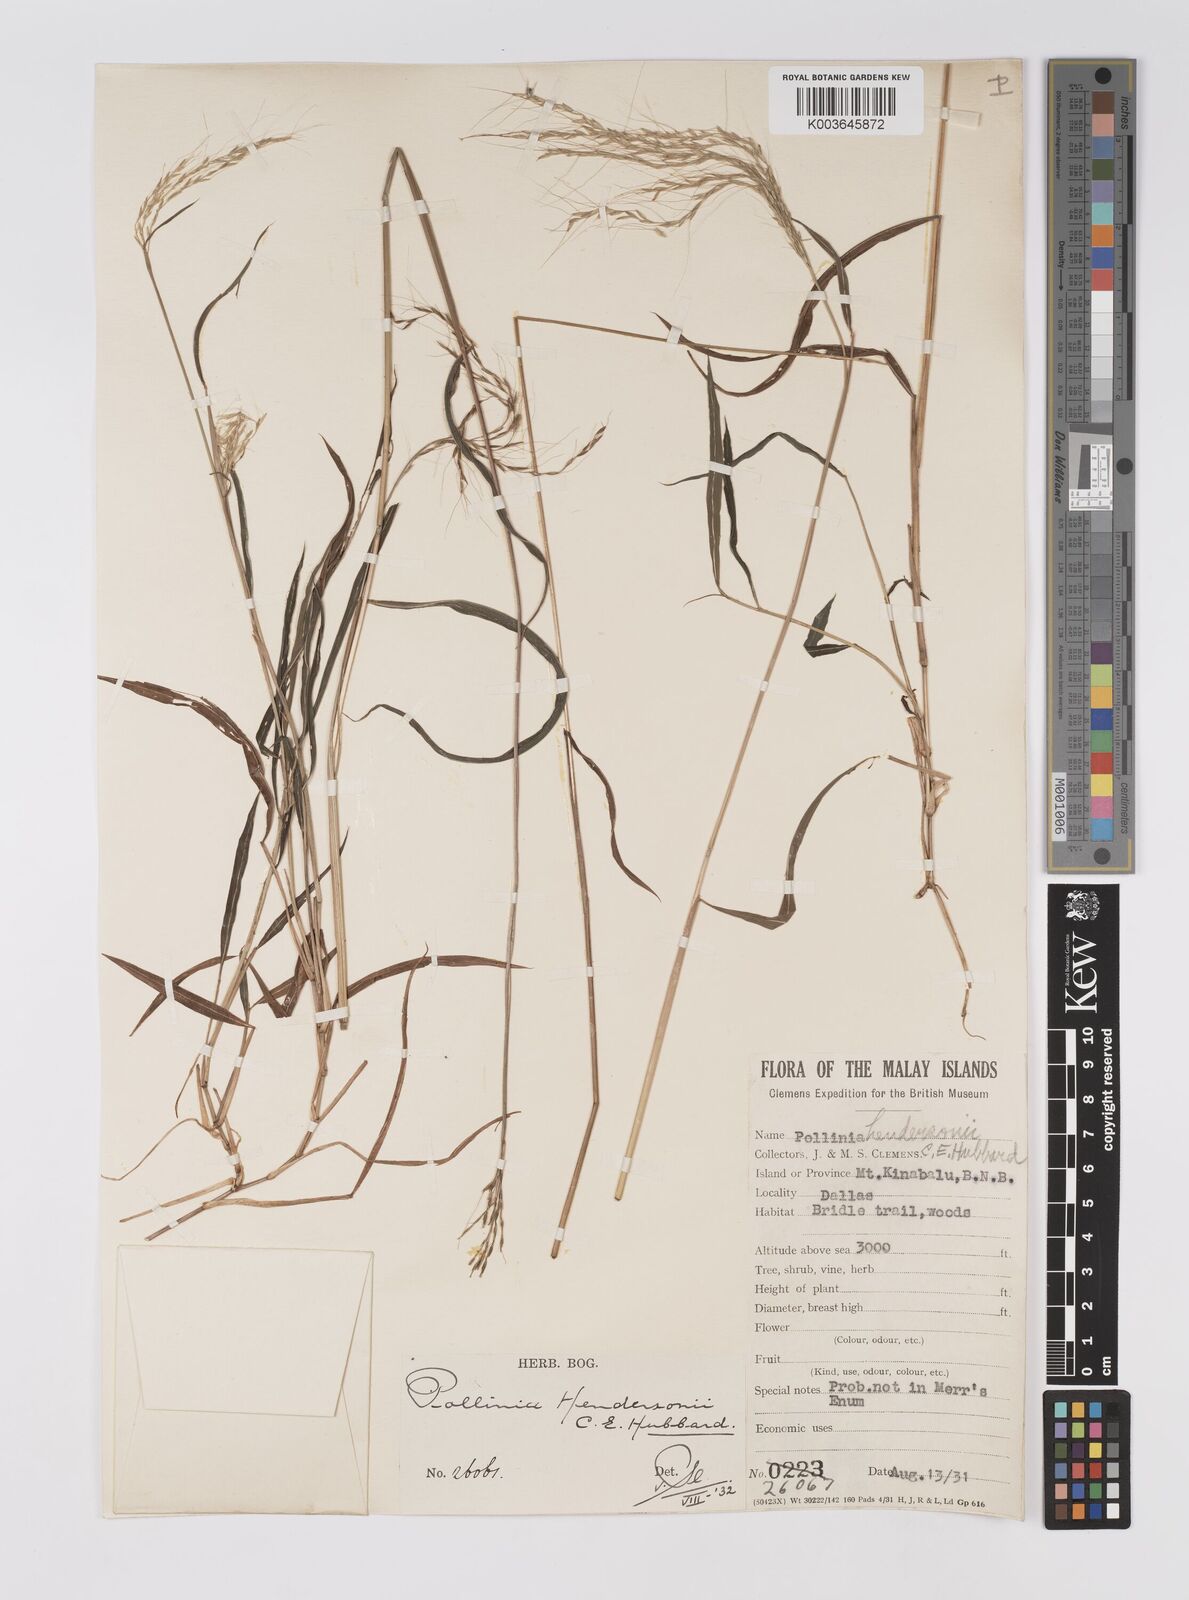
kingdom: Plantae
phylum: Tracheophyta
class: Liliopsida
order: Poales
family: Poaceae
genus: Microstegium
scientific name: Microstegium geniculatum
